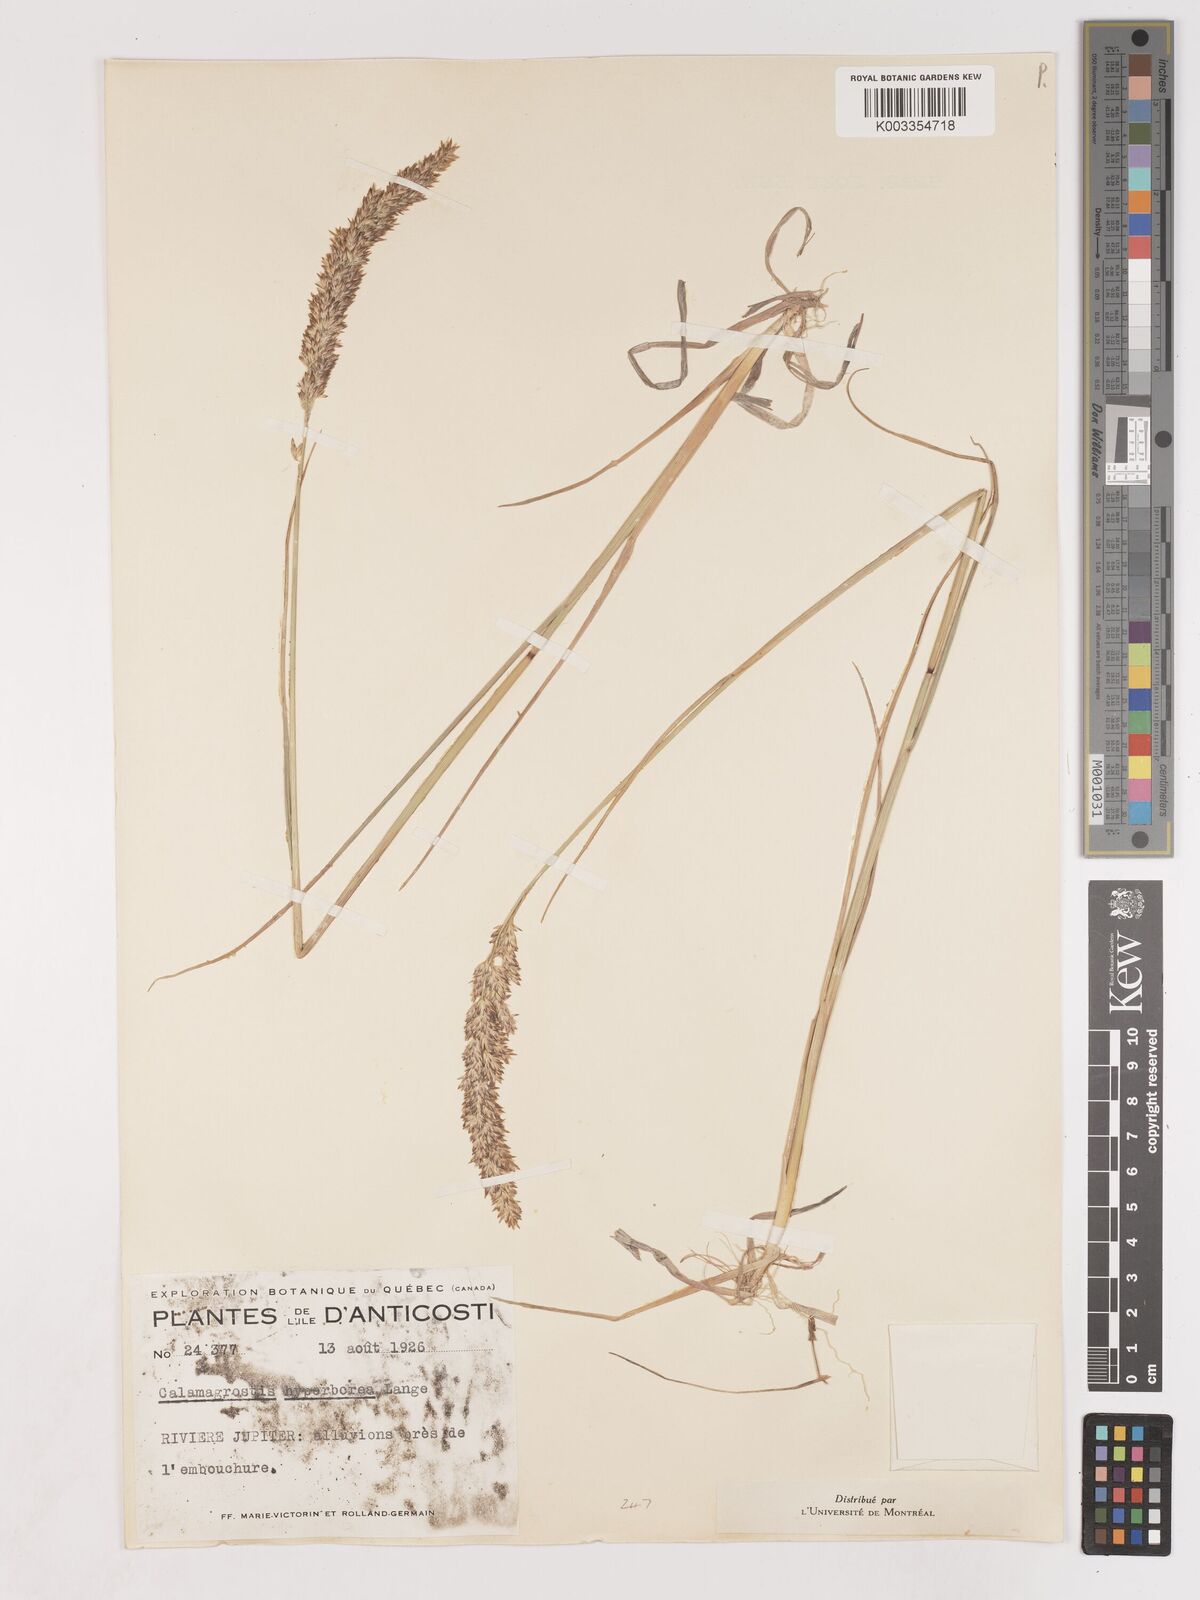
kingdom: Plantae
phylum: Tracheophyta
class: Liliopsida
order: Poales
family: Poaceae
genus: Cinnagrostis
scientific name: Cinnagrostis recta
